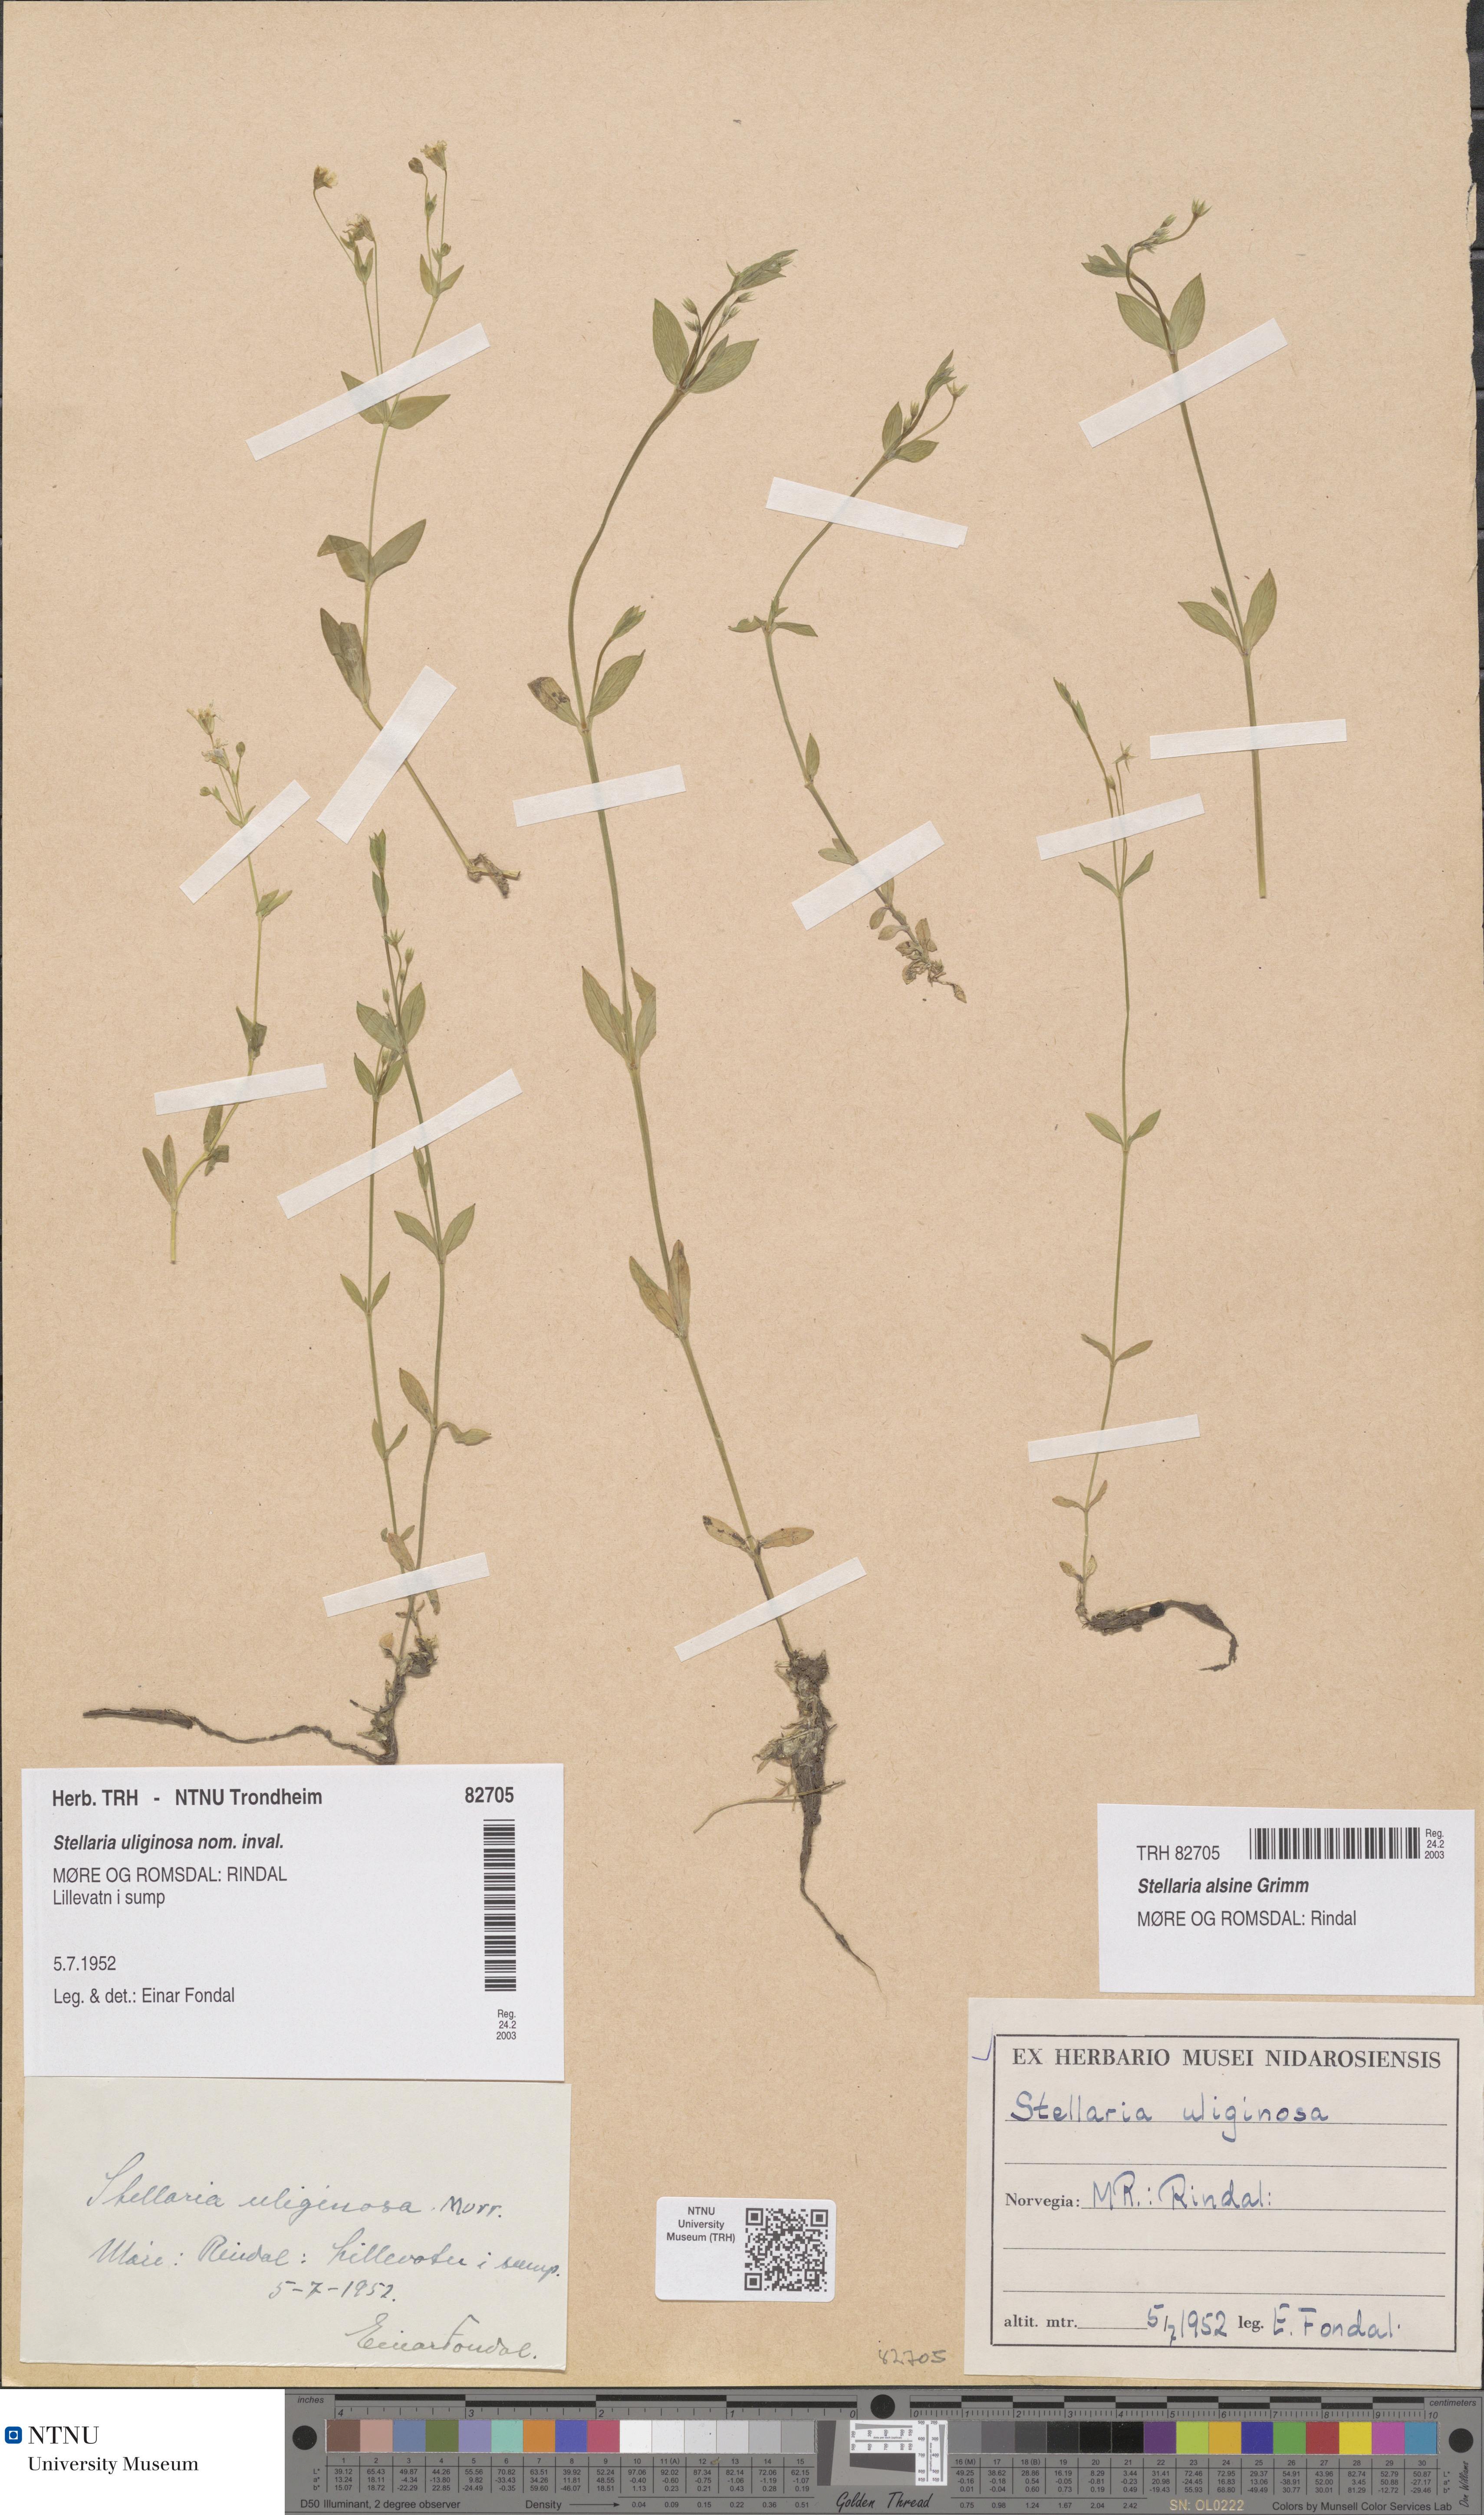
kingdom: Plantae
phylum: Tracheophyta
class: Magnoliopsida
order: Caryophyllales
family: Caryophyllaceae
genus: Stellaria
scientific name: Stellaria alsine
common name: Bog stitchwort
